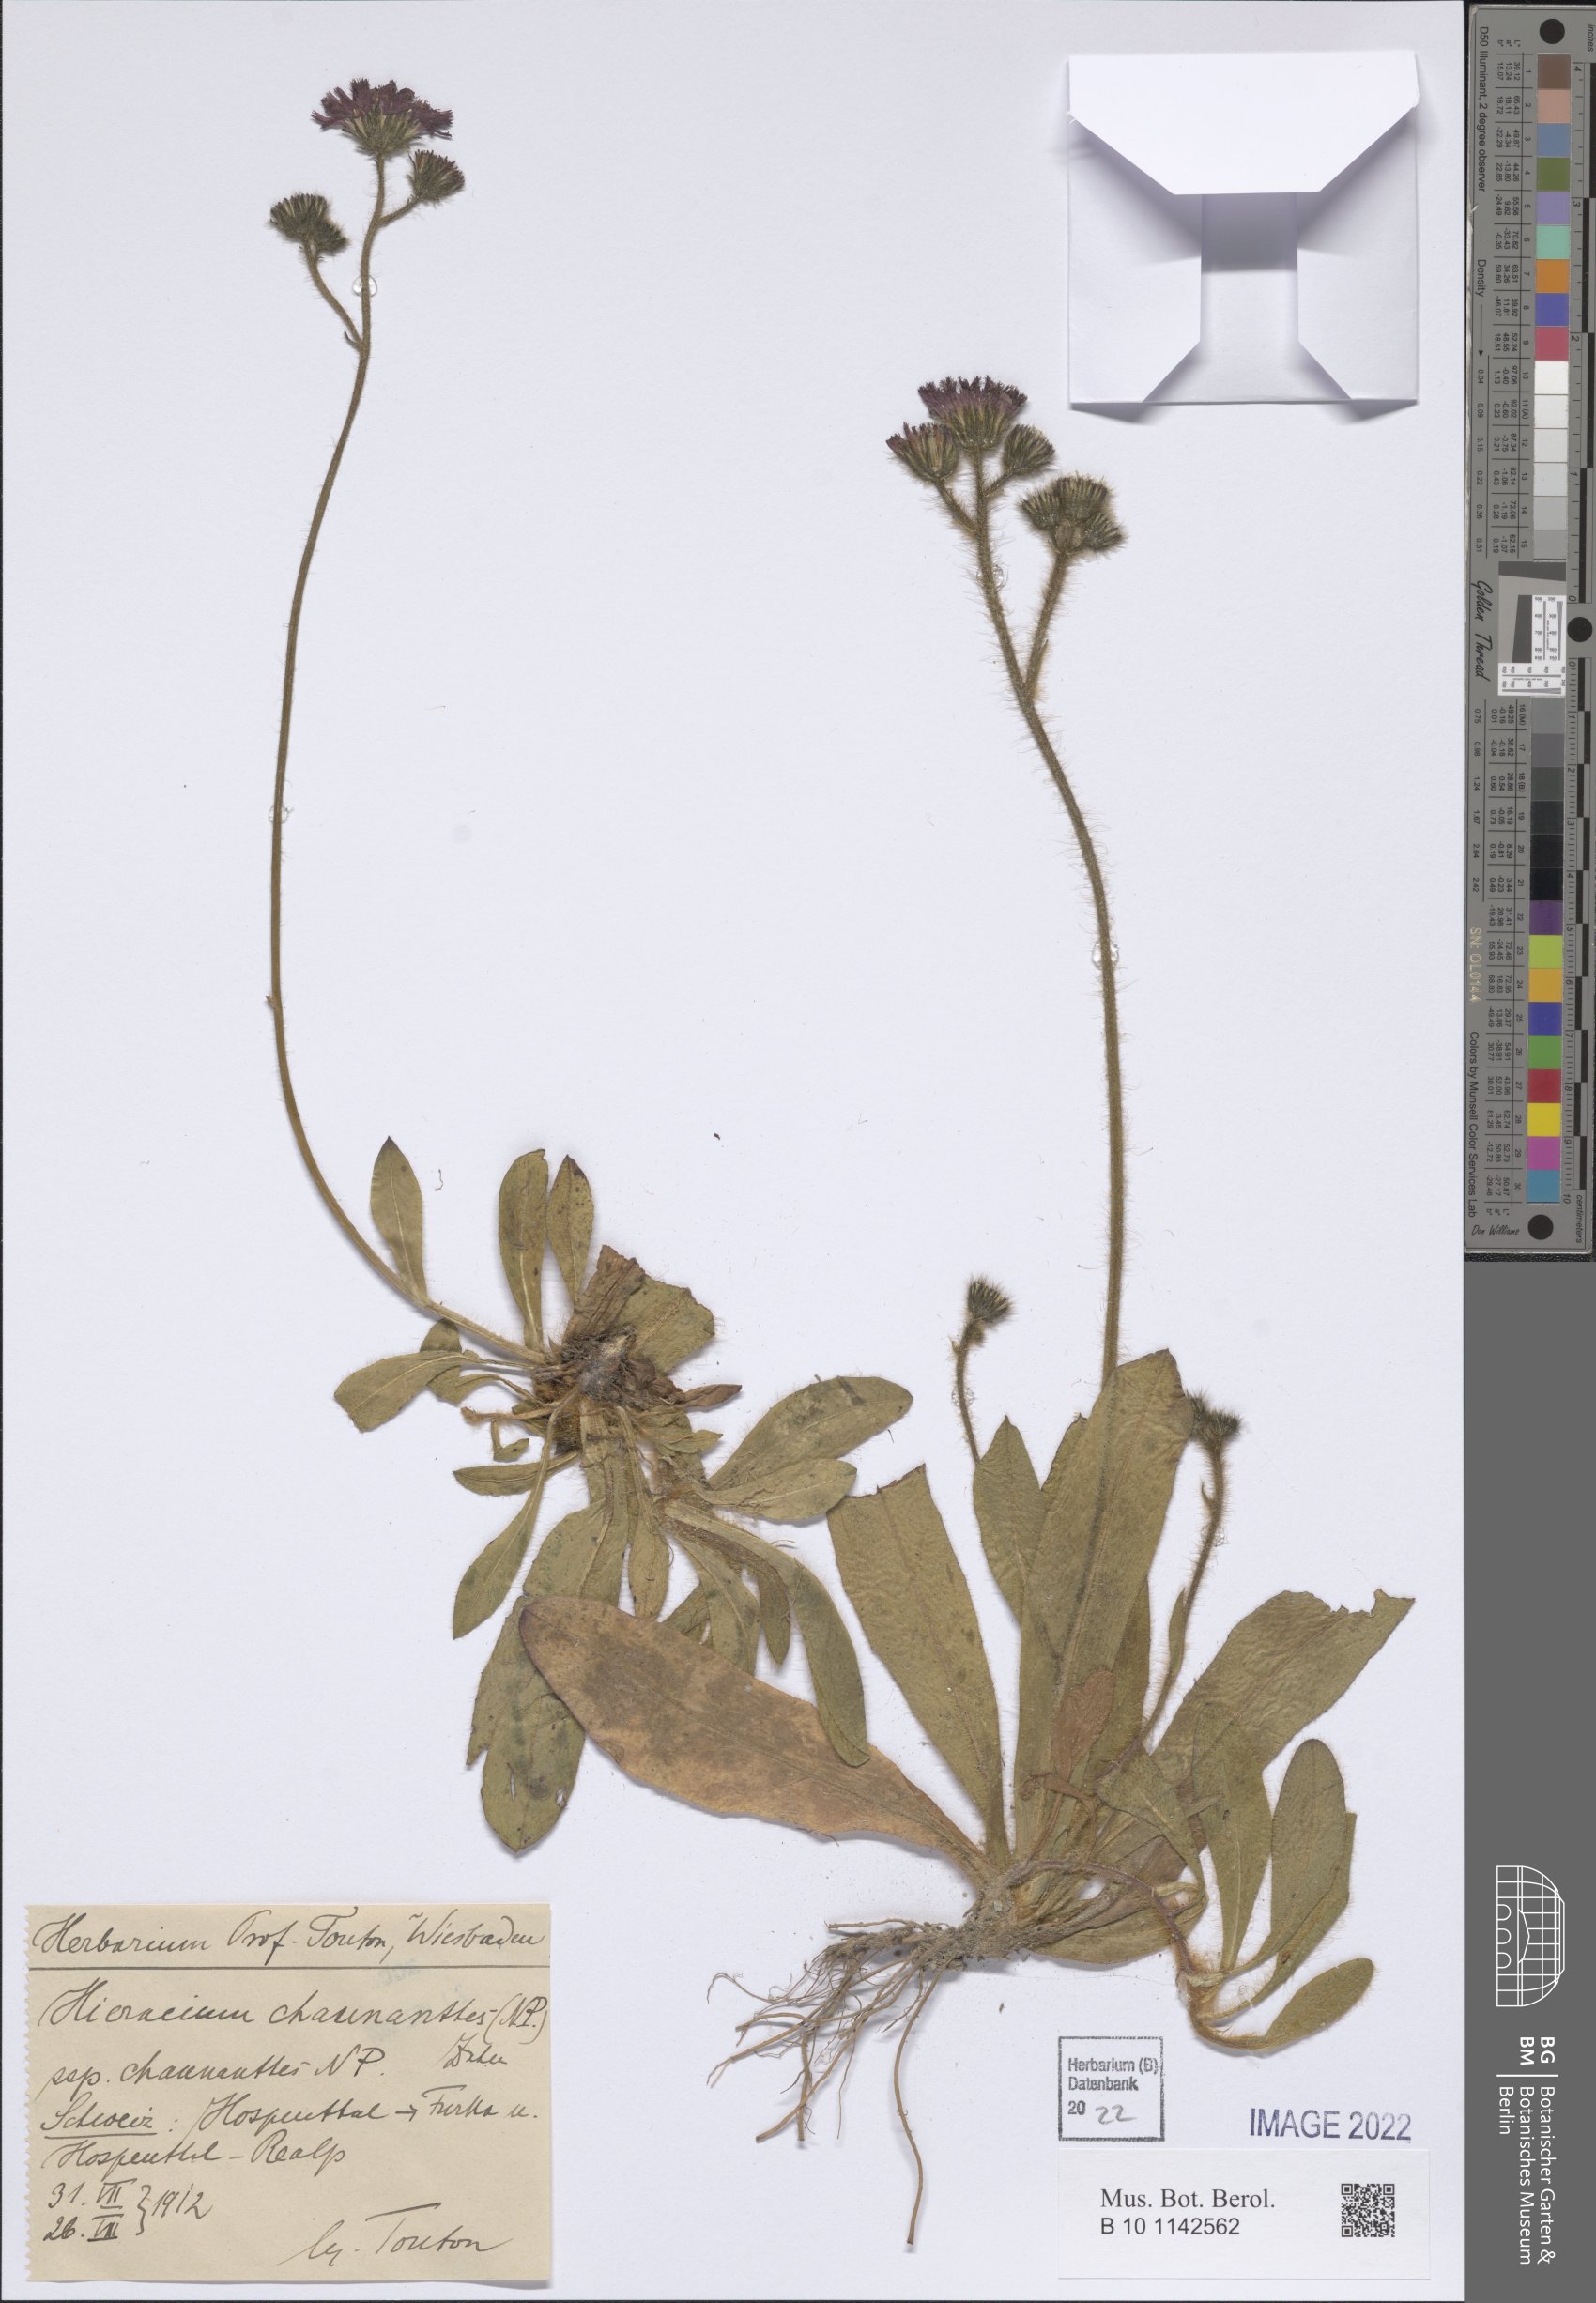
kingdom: Plantae
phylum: Tracheophyta
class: Magnoliopsida
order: Asterales
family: Asteraceae
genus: Pilosella
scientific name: Pilosella rubra
